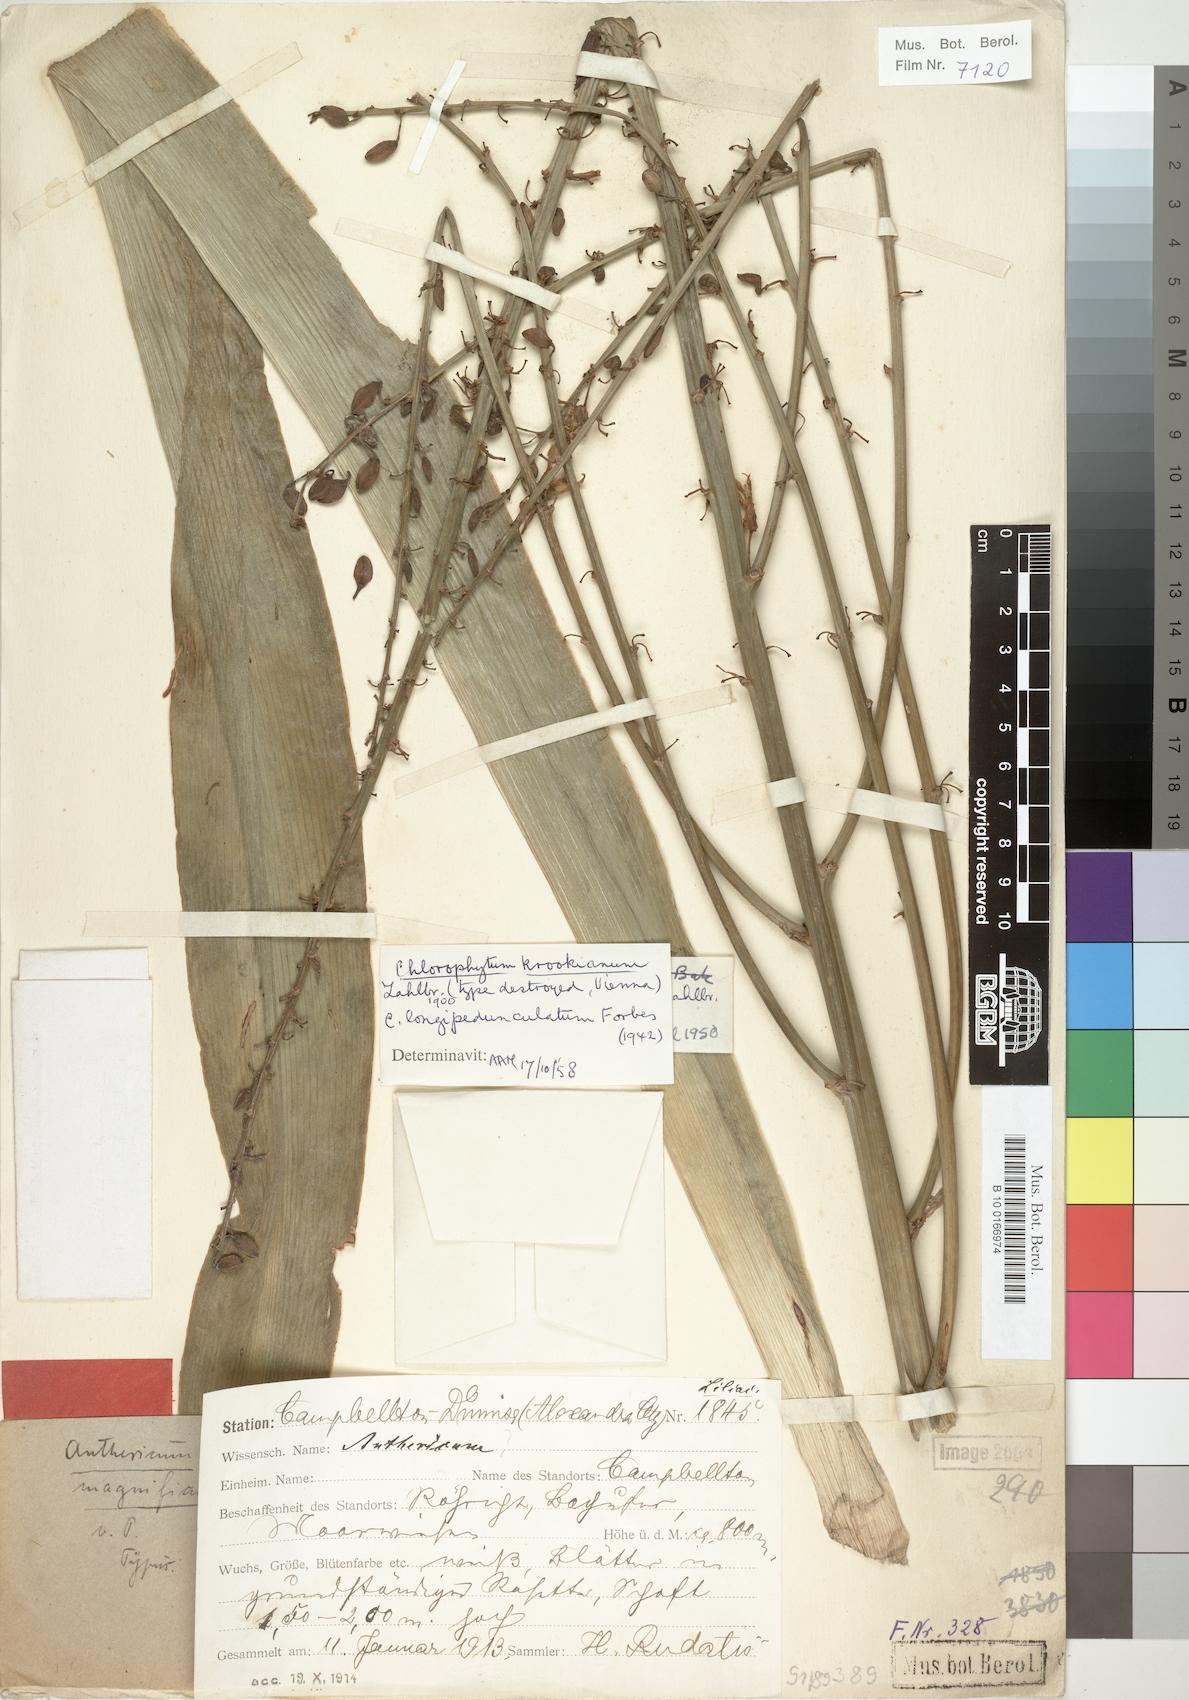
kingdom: Plantae
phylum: Tracheophyta
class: Liliopsida
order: Asparagales
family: Asparagaceae
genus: Chlorophytum
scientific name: Chlorophytum krookianum
